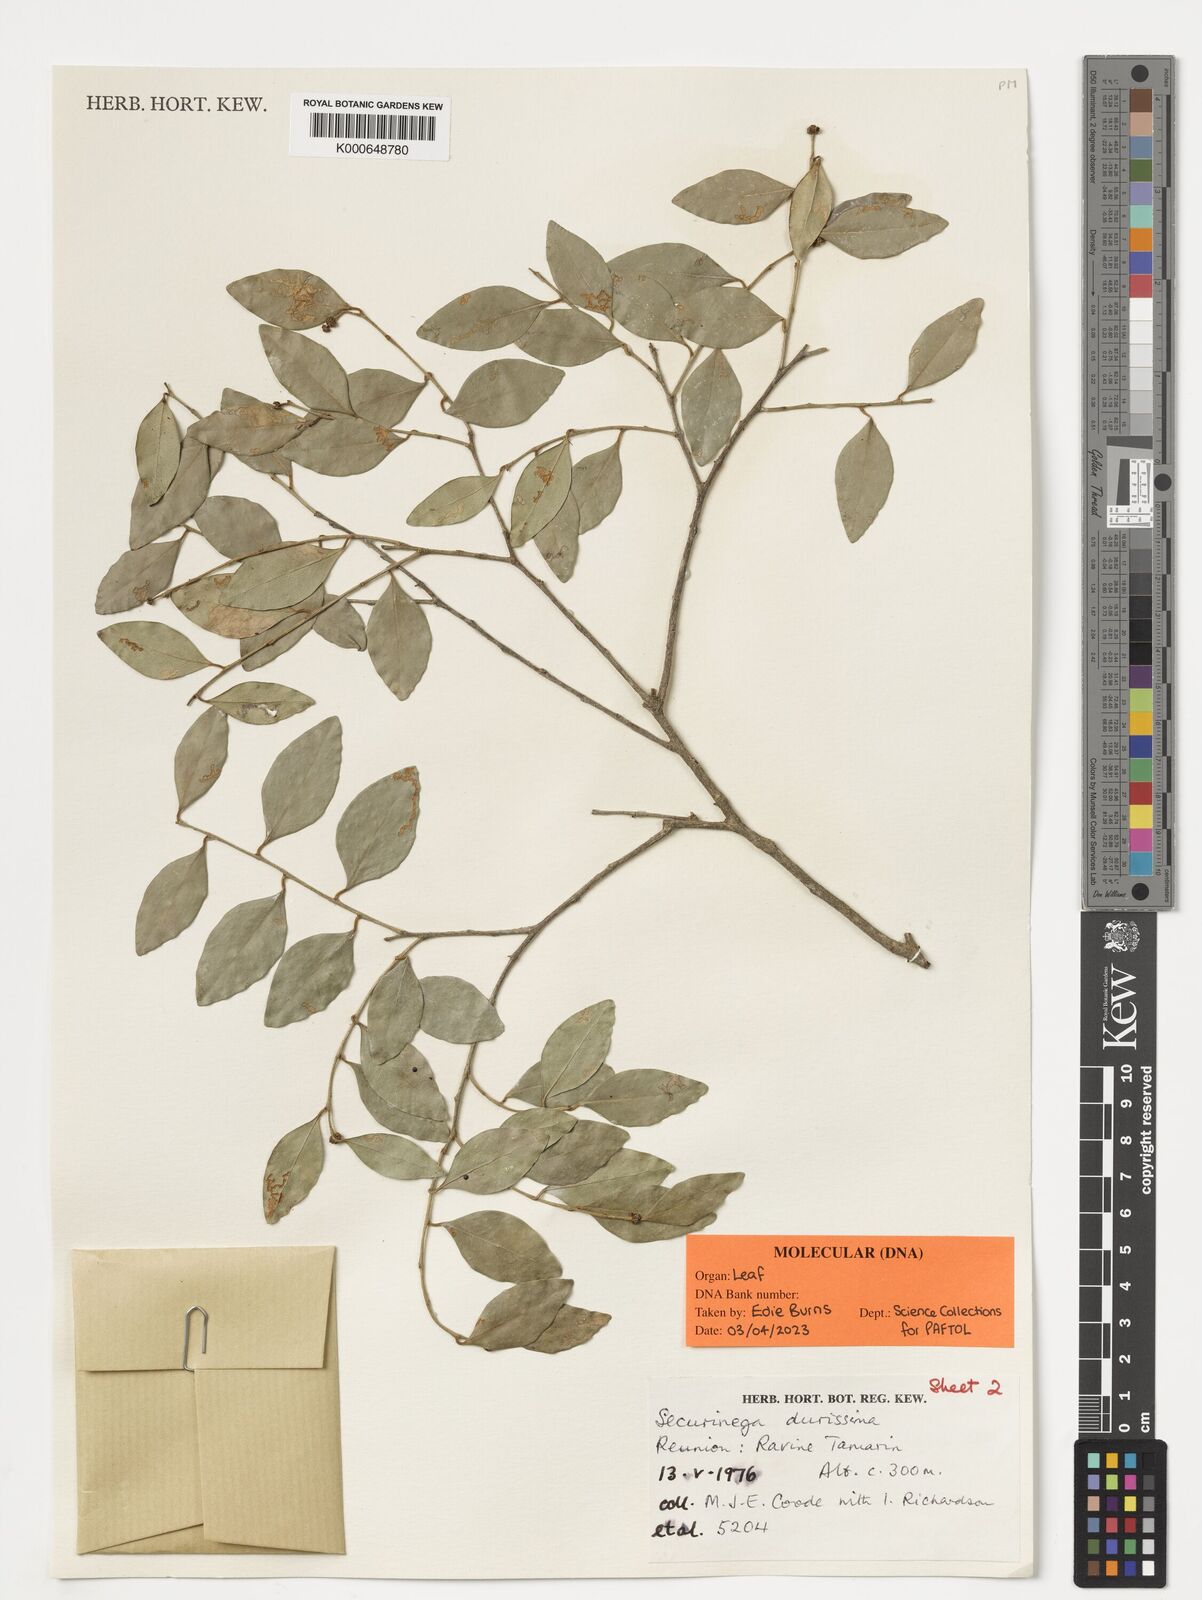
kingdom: Plantae
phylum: Tracheophyta
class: Magnoliopsida
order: Malpighiales
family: Phyllanthaceae
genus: Securinega
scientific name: Securinega durissima
